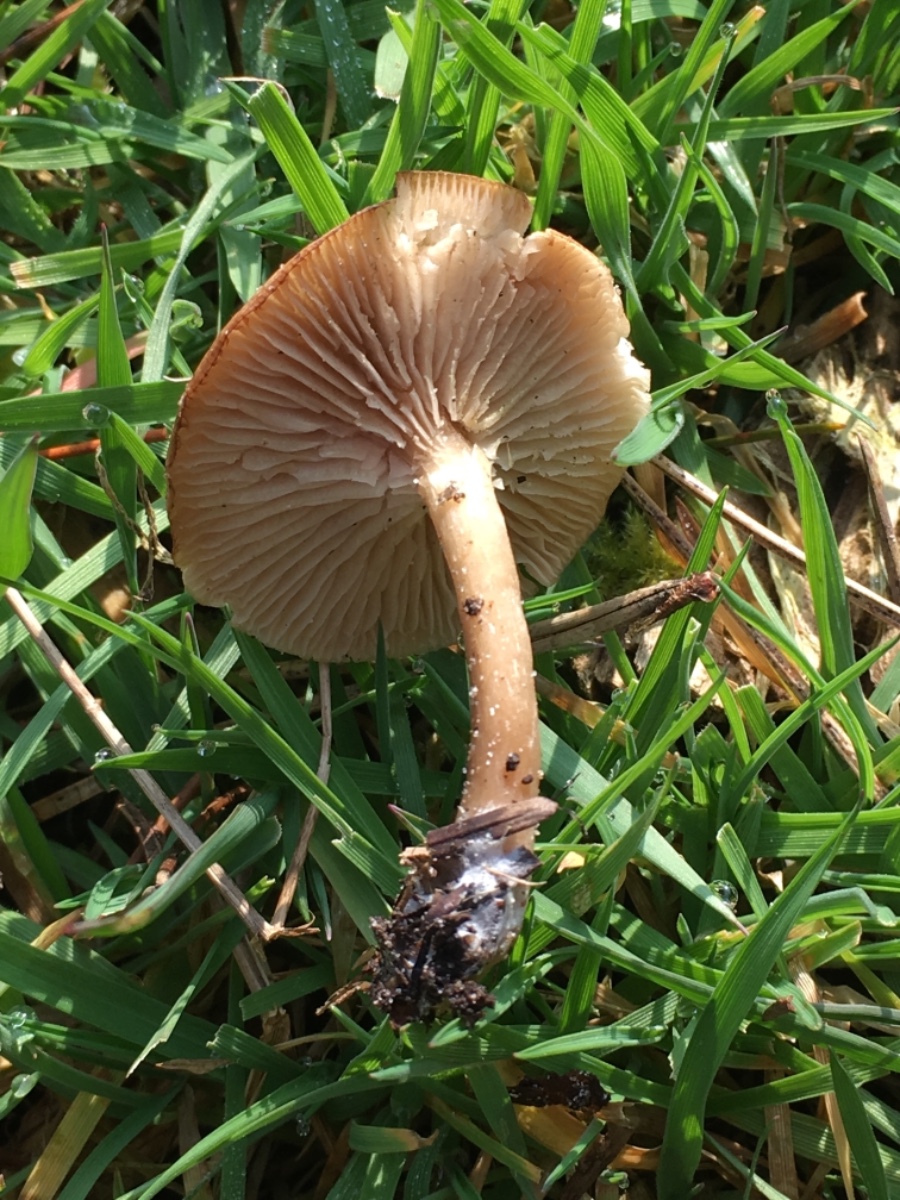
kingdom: Fungi
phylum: Basidiomycota
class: Agaricomycetes
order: Agaricales
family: Tricholomataceae
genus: Clitocybe
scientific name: Clitocybe fragrans
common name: vellugtende tragthat
